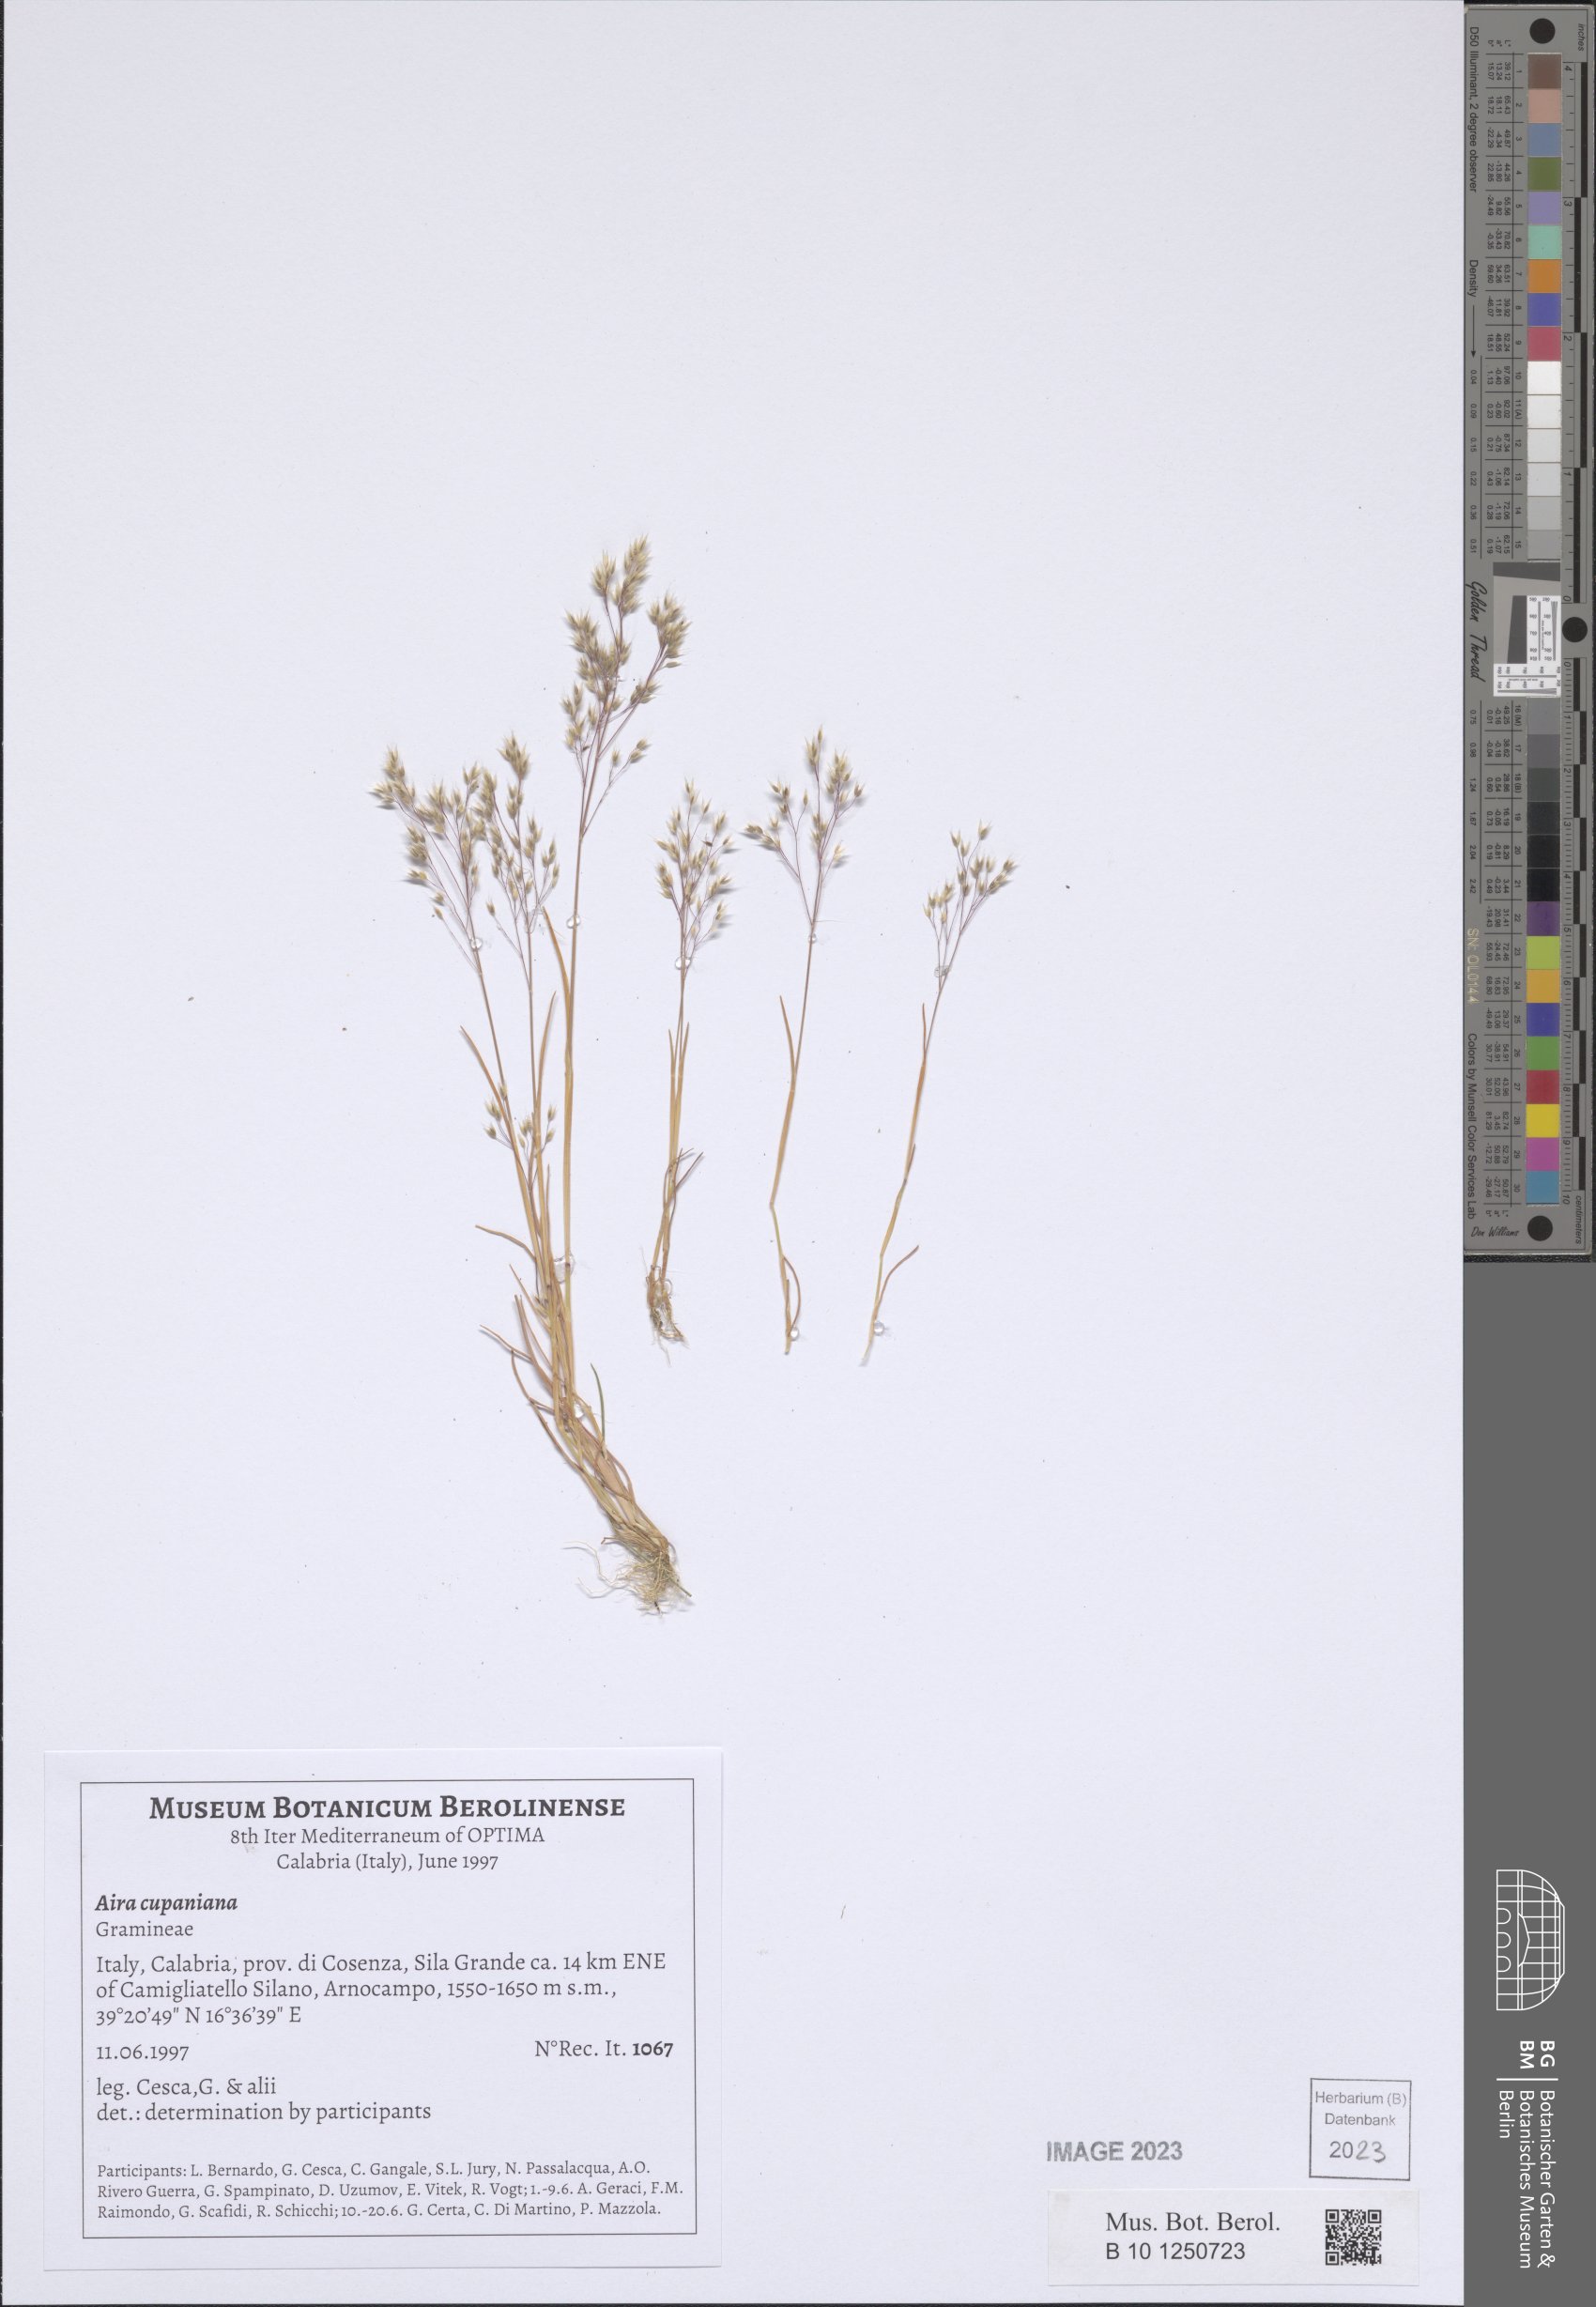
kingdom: Plantae
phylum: Tracheophyta
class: Liliopsida
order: Poales
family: Poaceae
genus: Aira
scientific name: Aira cupaniana
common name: Silver hairgrass
